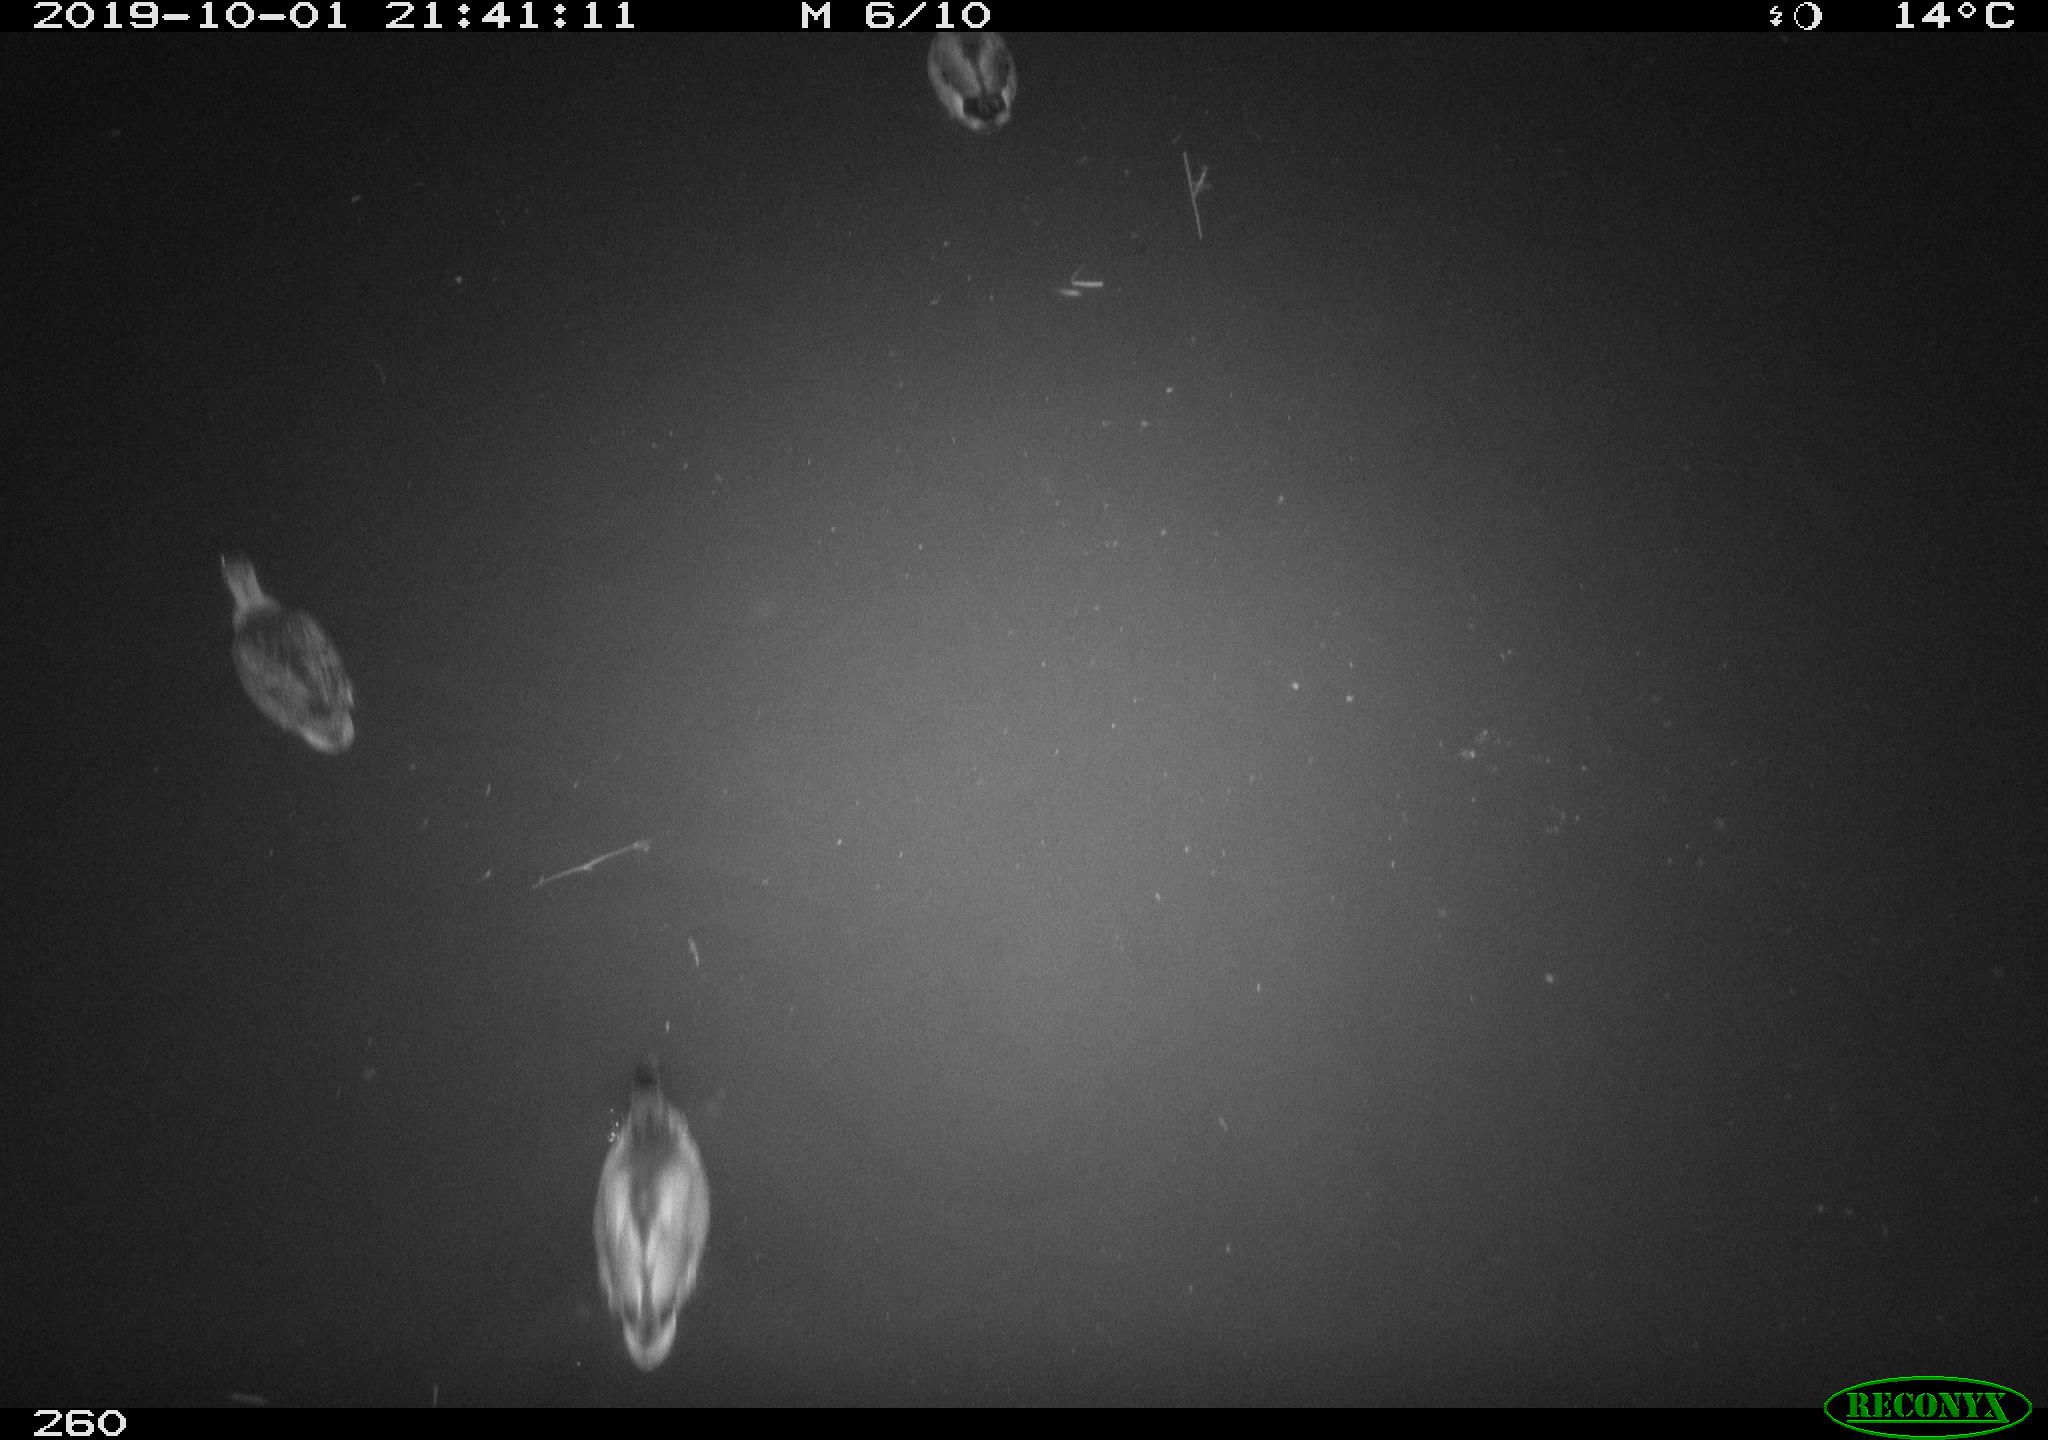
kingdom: Animalia
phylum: Chordata
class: Aves
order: Anseriformes
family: Anatidae
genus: Anas
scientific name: Anas platyrhynchos
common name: Mallard
